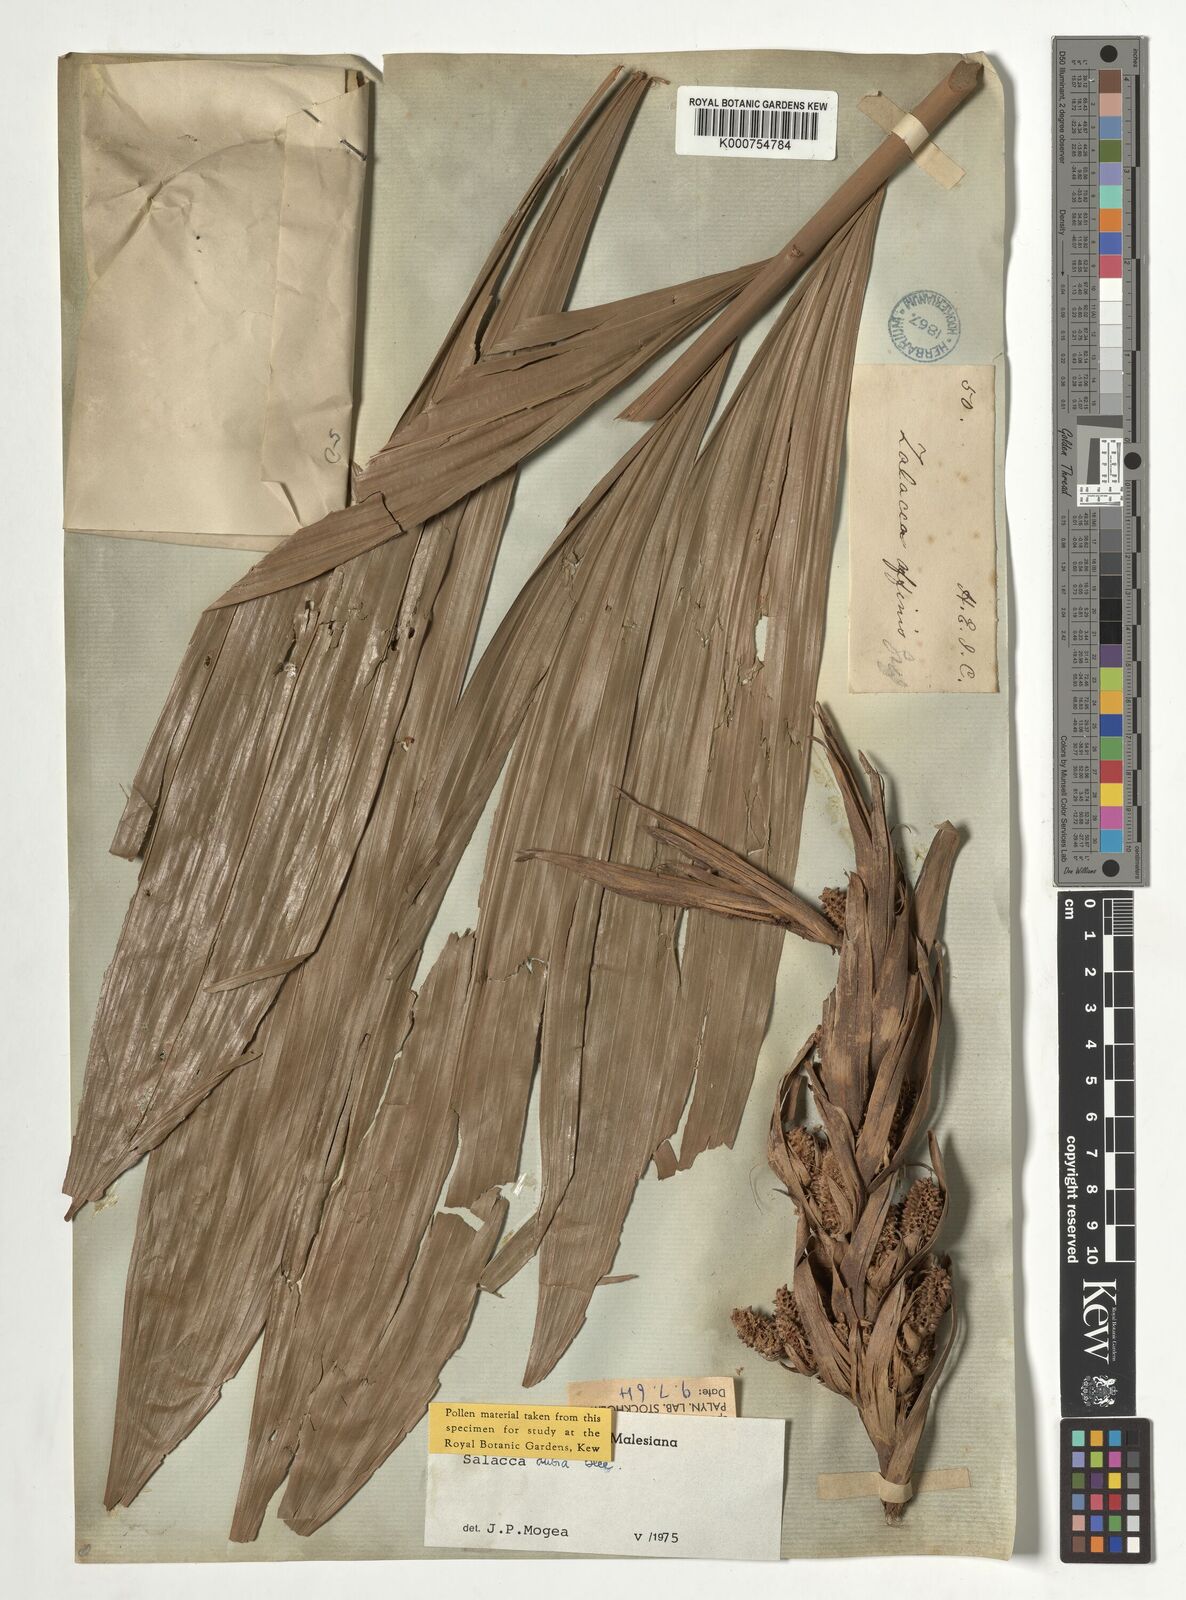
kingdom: Plantae
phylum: Tracheophyta
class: Liliopsida
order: Arecales
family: Arecaceae
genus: Salacca
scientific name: Salacca affinis
